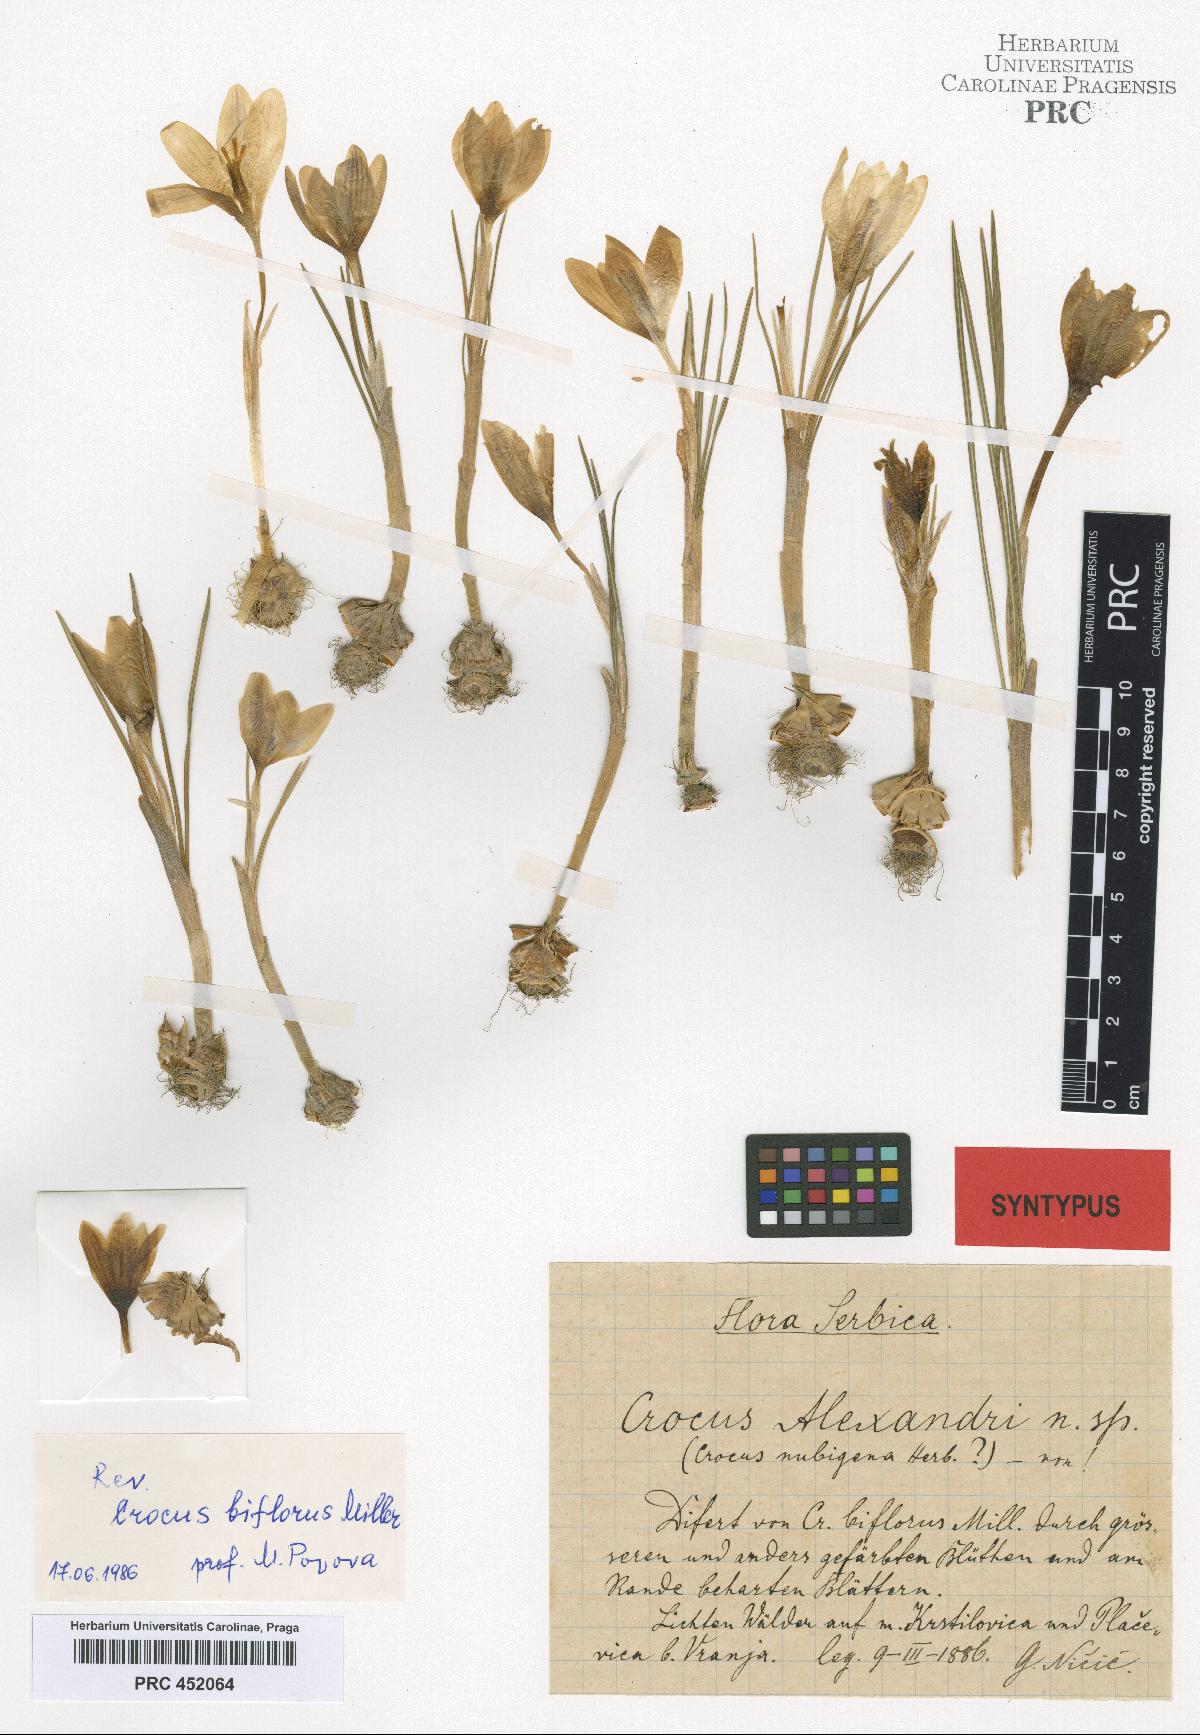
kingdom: Plantae
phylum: Tracheophyta
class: Liliopsida
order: Asparagales
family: Iridaceae
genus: Crocus
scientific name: Crocus alexandri
